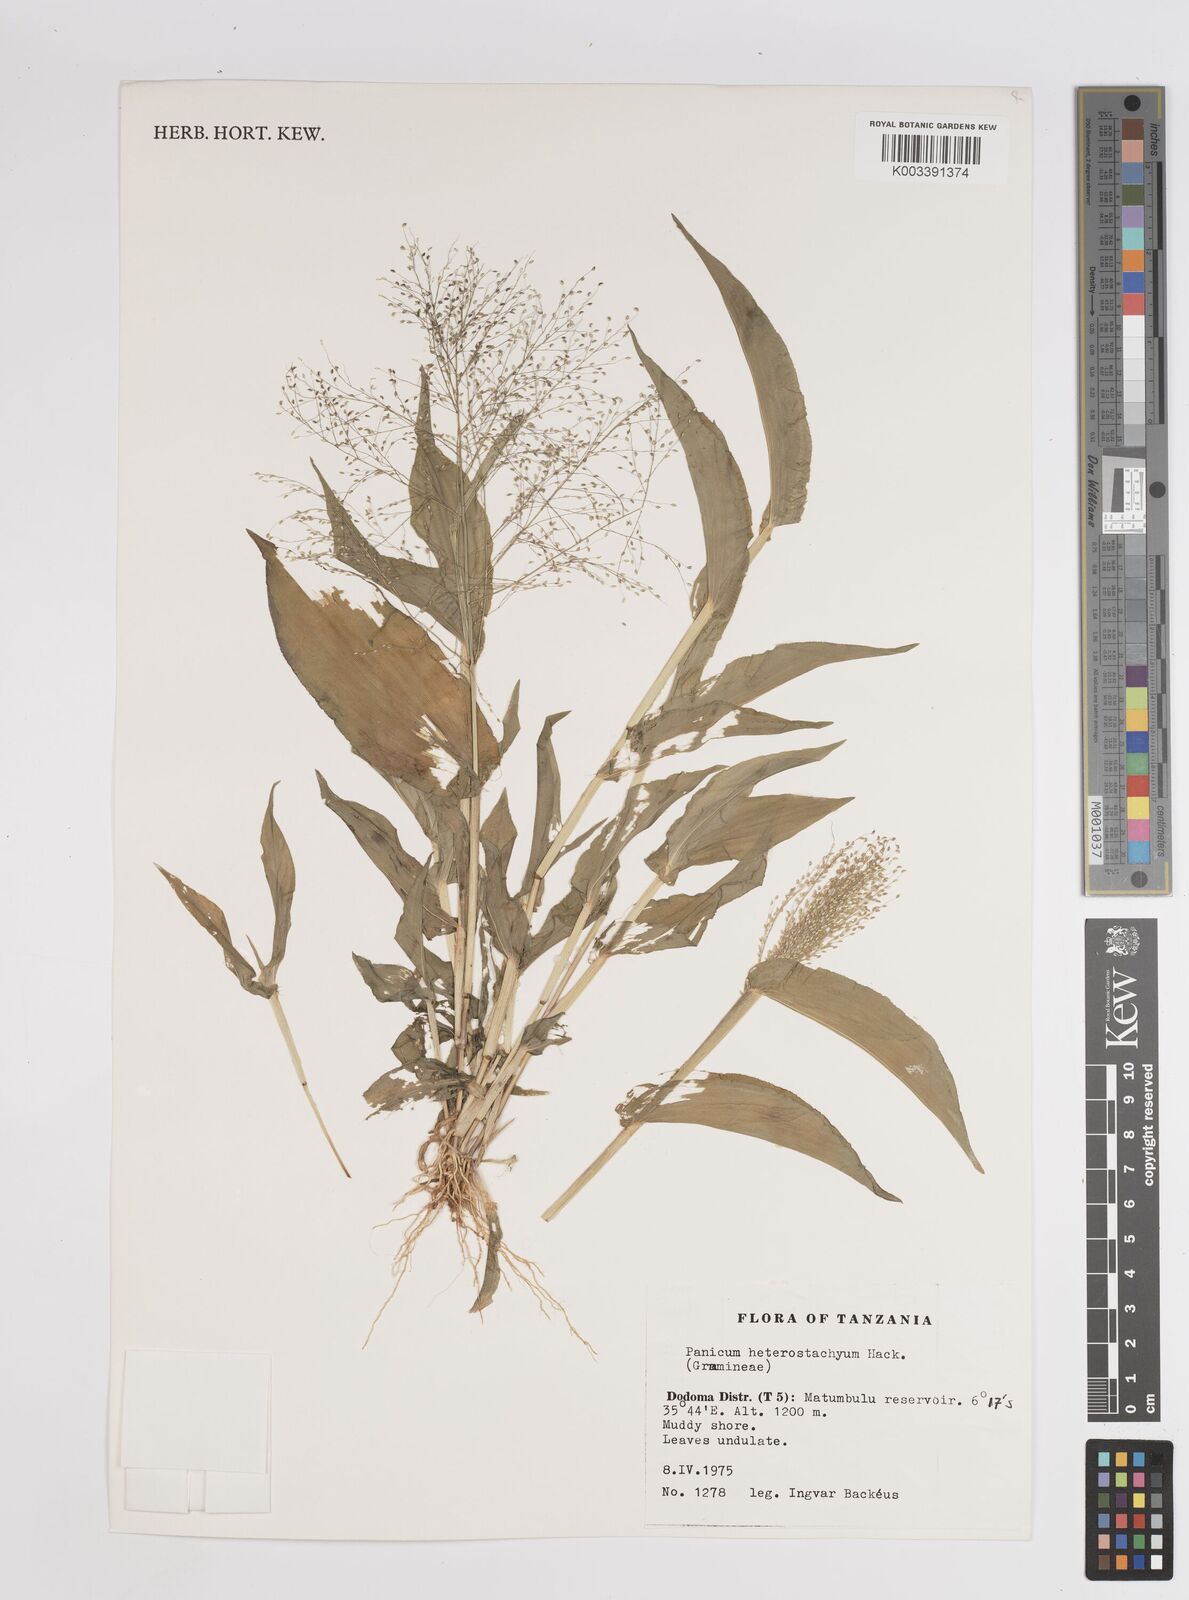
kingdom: Plantae
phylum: Tracheophyta
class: Liliopsida
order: Poales
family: Poaceae
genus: Panicum
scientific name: Panicum hirtum
